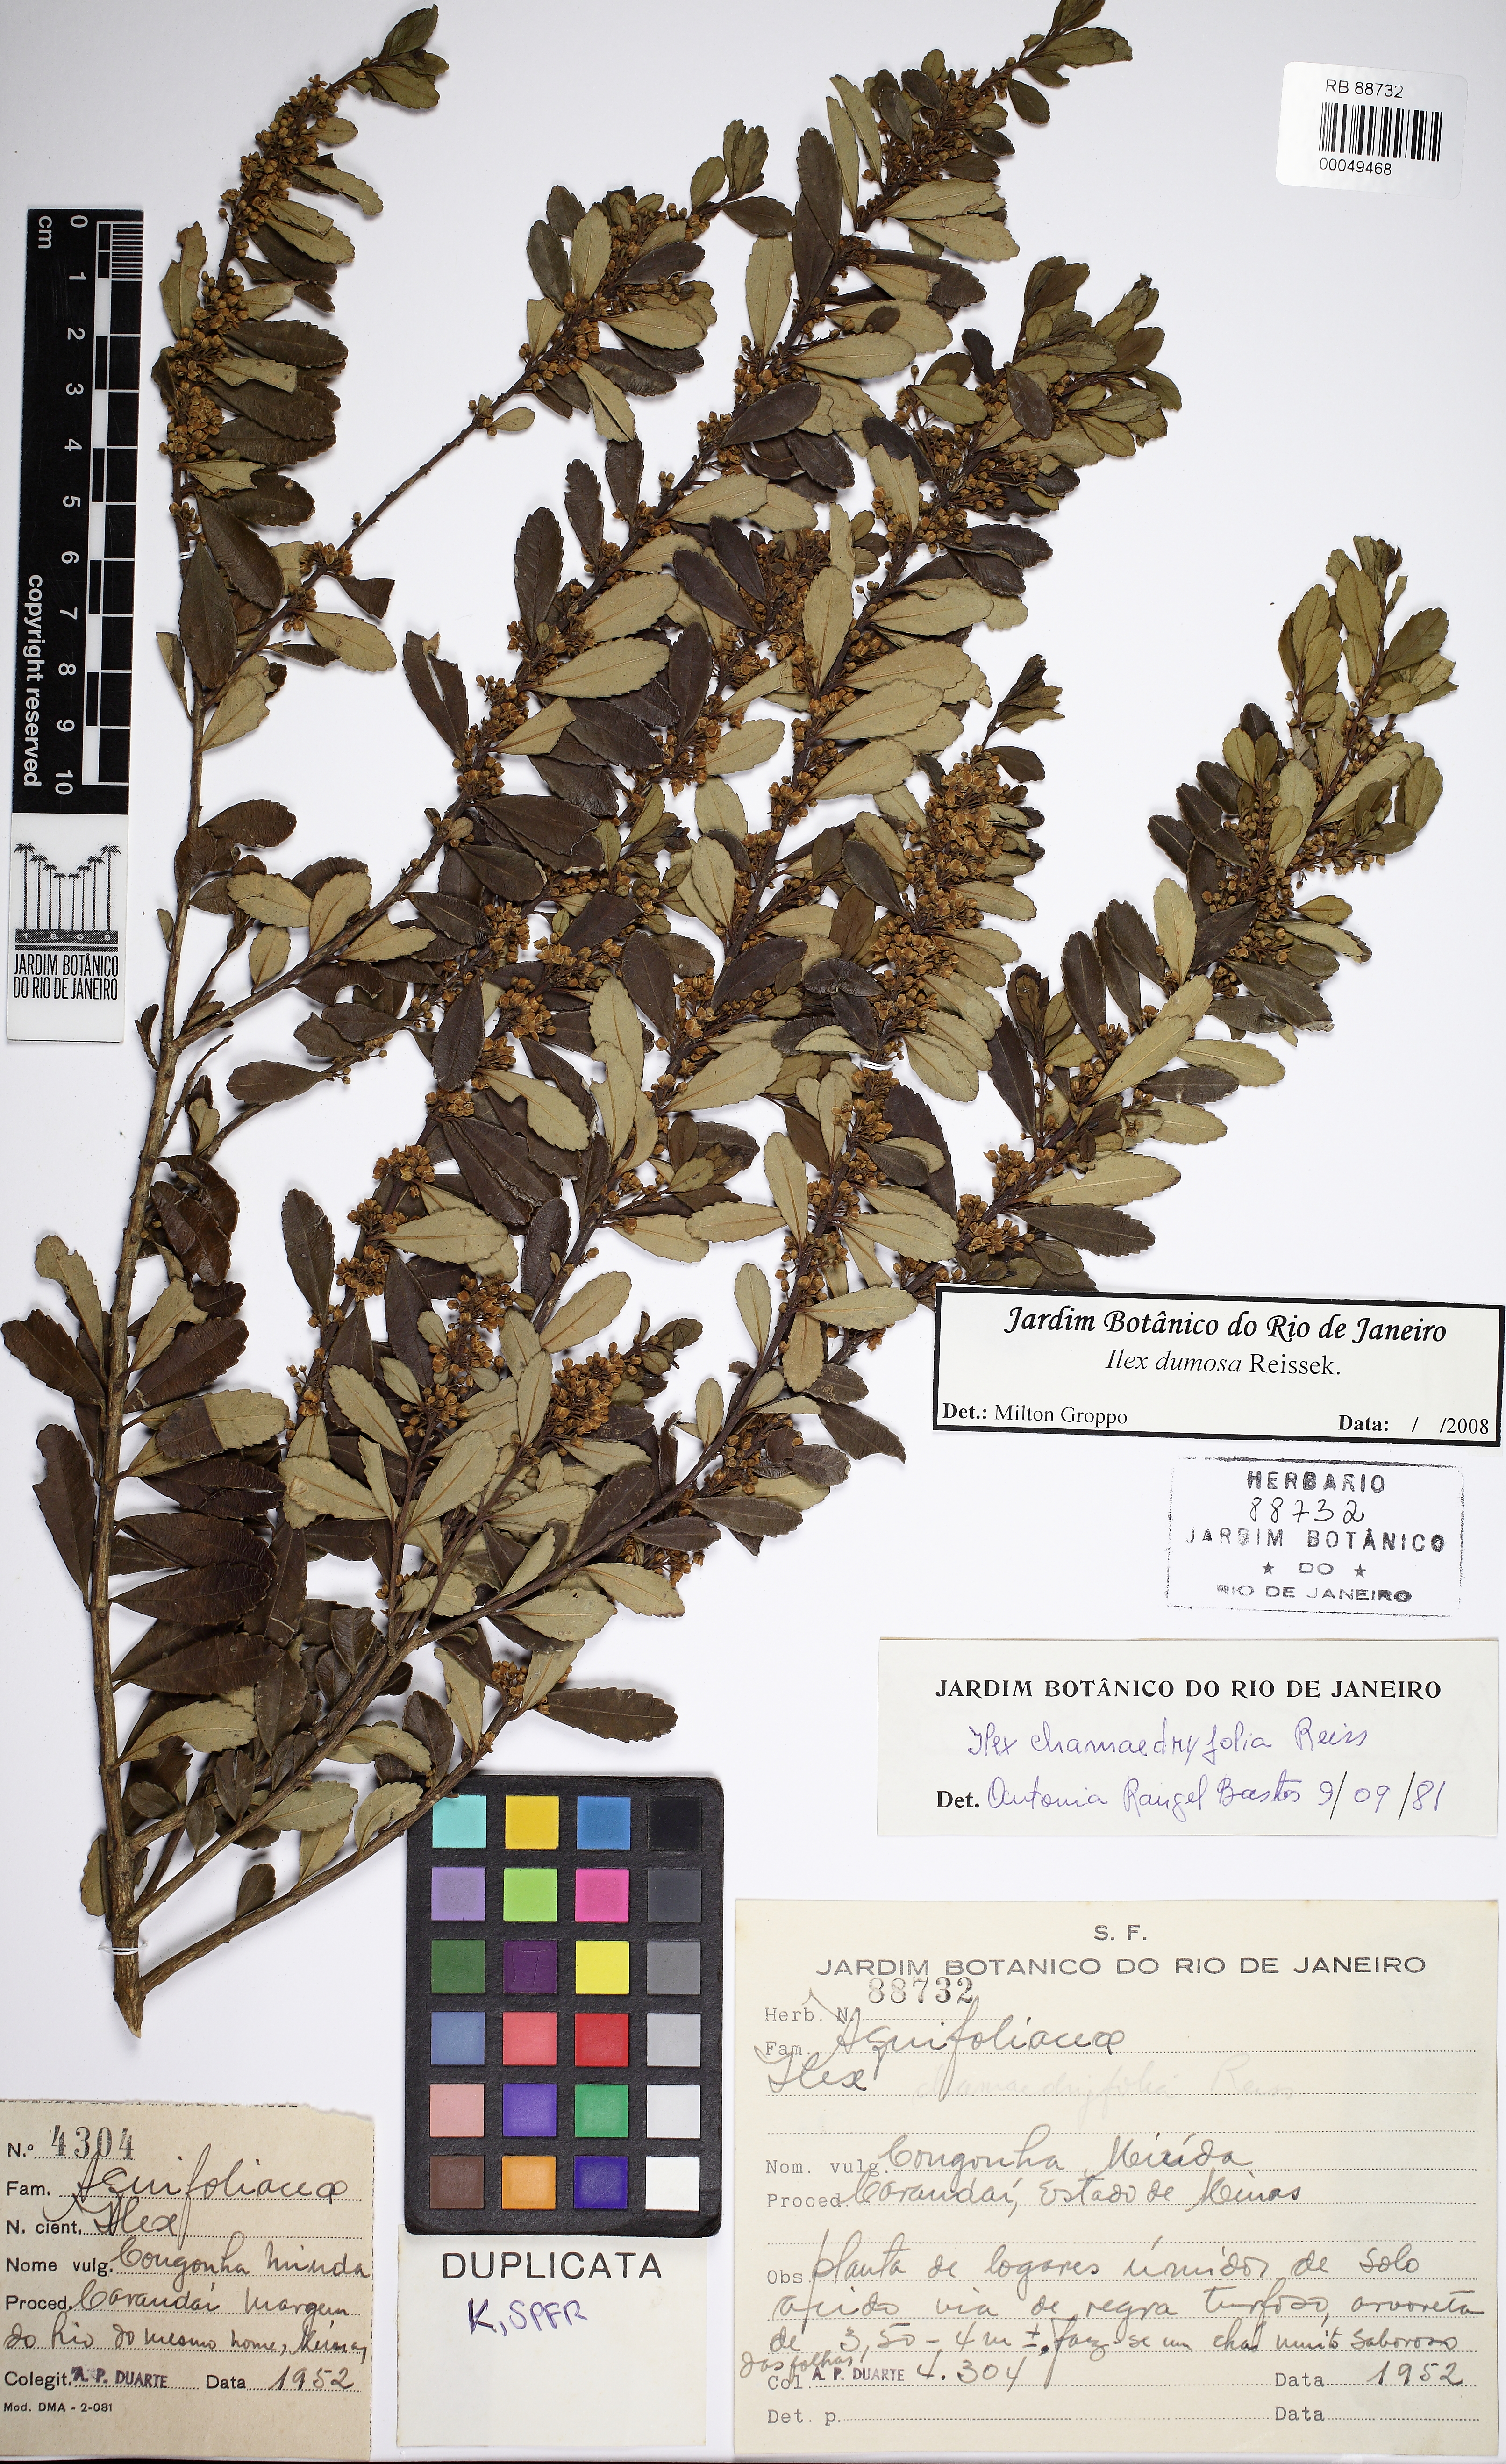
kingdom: Plantae
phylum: Tracheophyta
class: Magnoliopsida
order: Aquifoliales
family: Aquifoliaceae
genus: Ilex
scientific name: Ilex affinis
